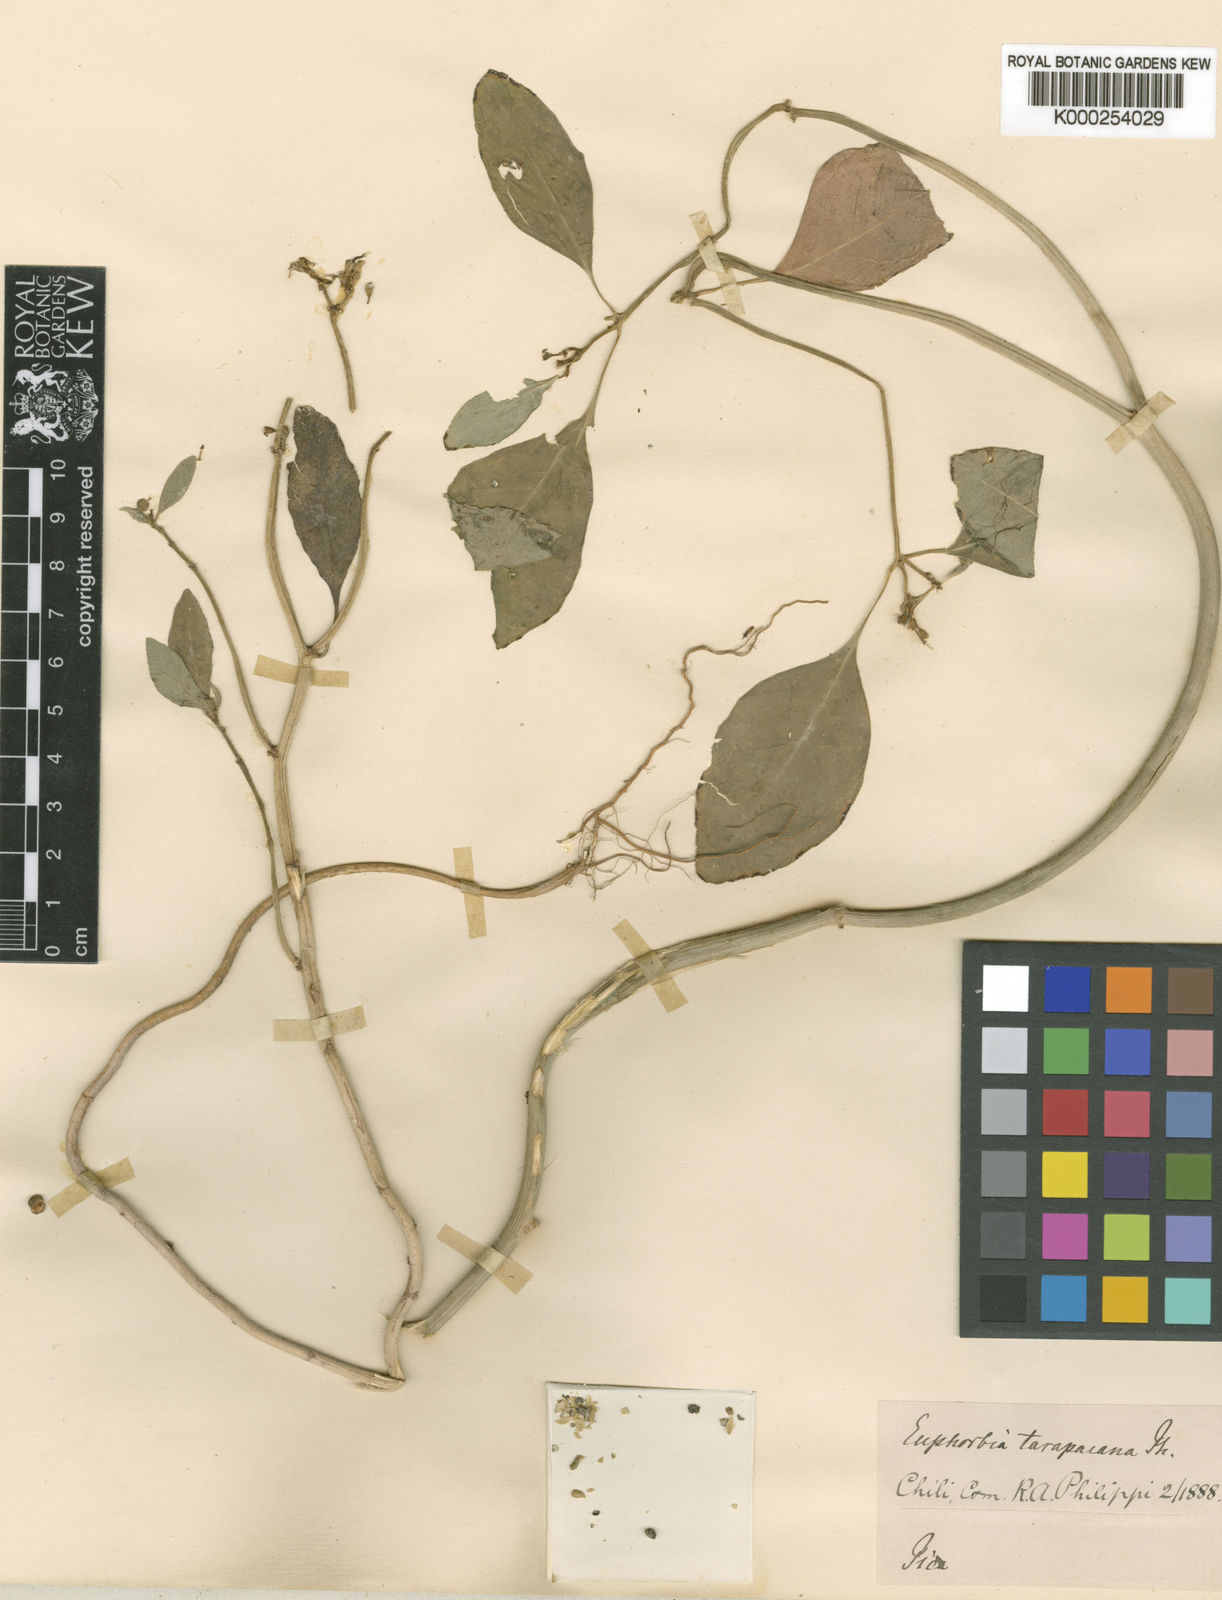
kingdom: Plantae
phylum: Tracheophyta
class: Magnoliopsida
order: Malpighiales
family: Euphorbiaceae
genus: Euphorbia
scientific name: Euphorbia tarapacana
